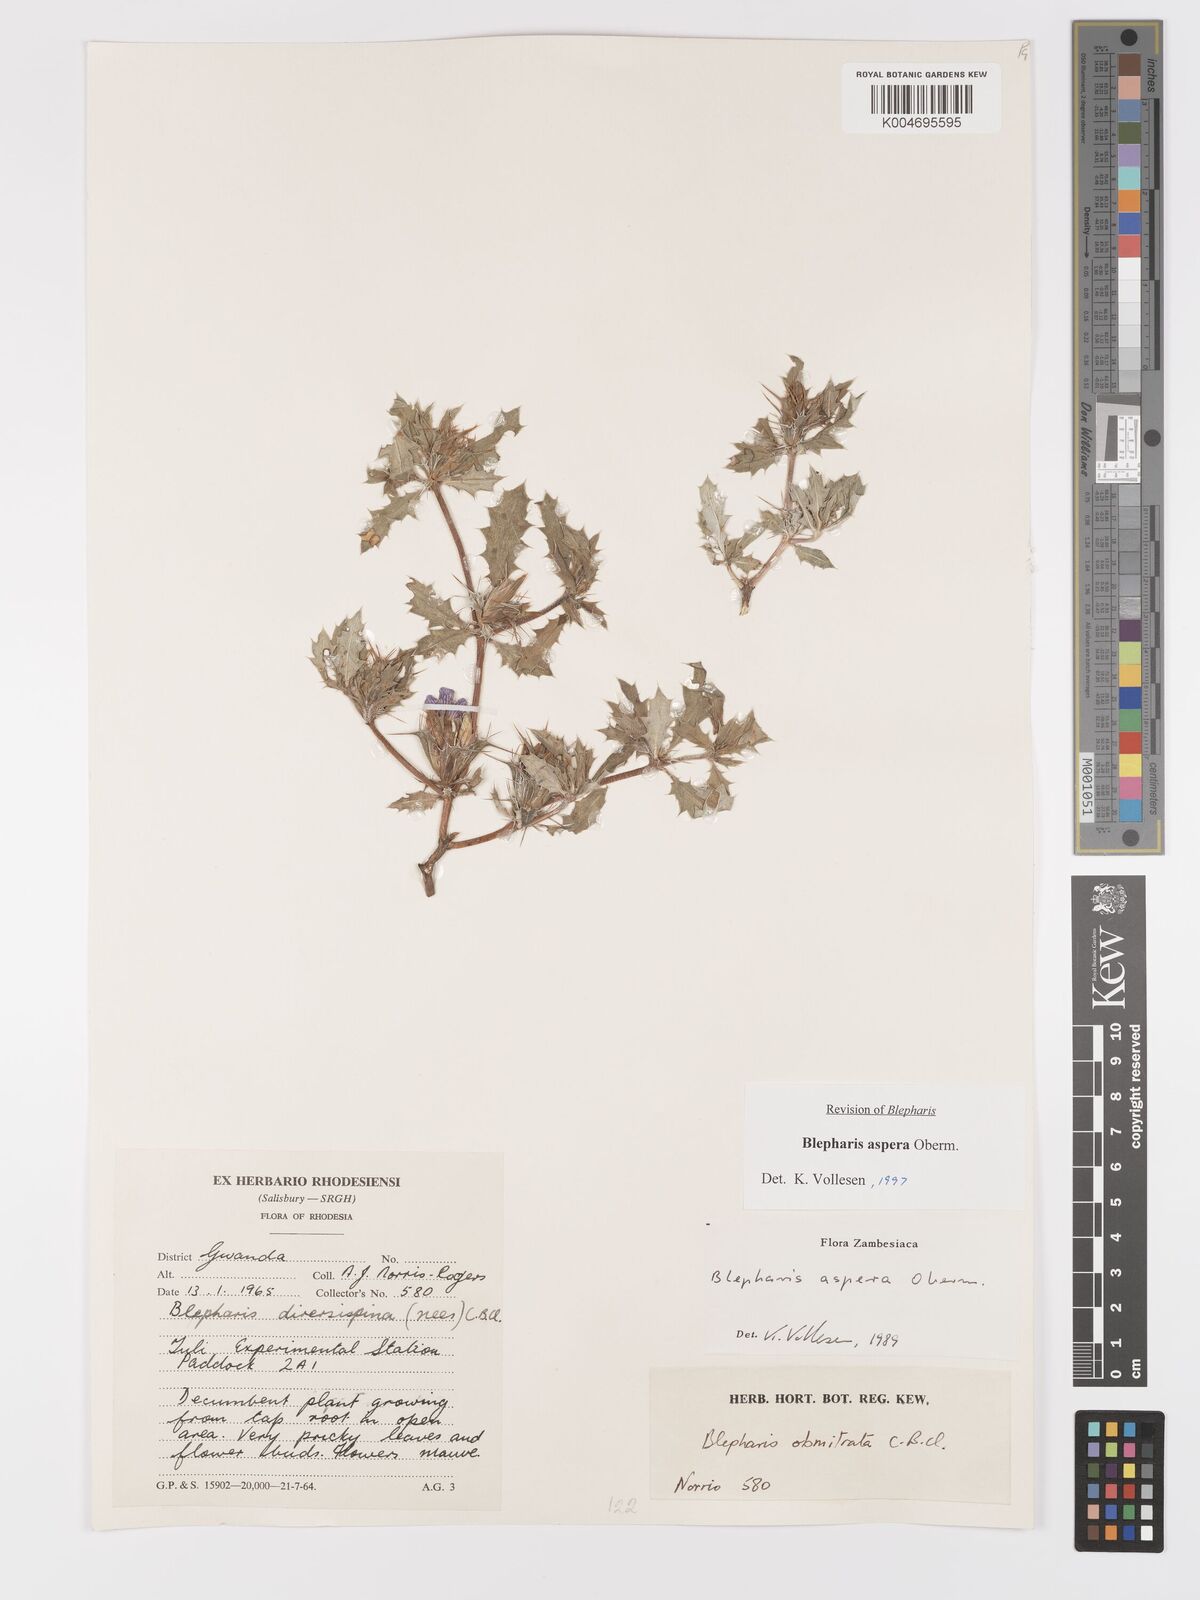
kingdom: Plantae
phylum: Tracheophyta
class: Magnoliopsida
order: Lamiales
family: Acanthaceae
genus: Blepharis
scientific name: Blepharis aspera
